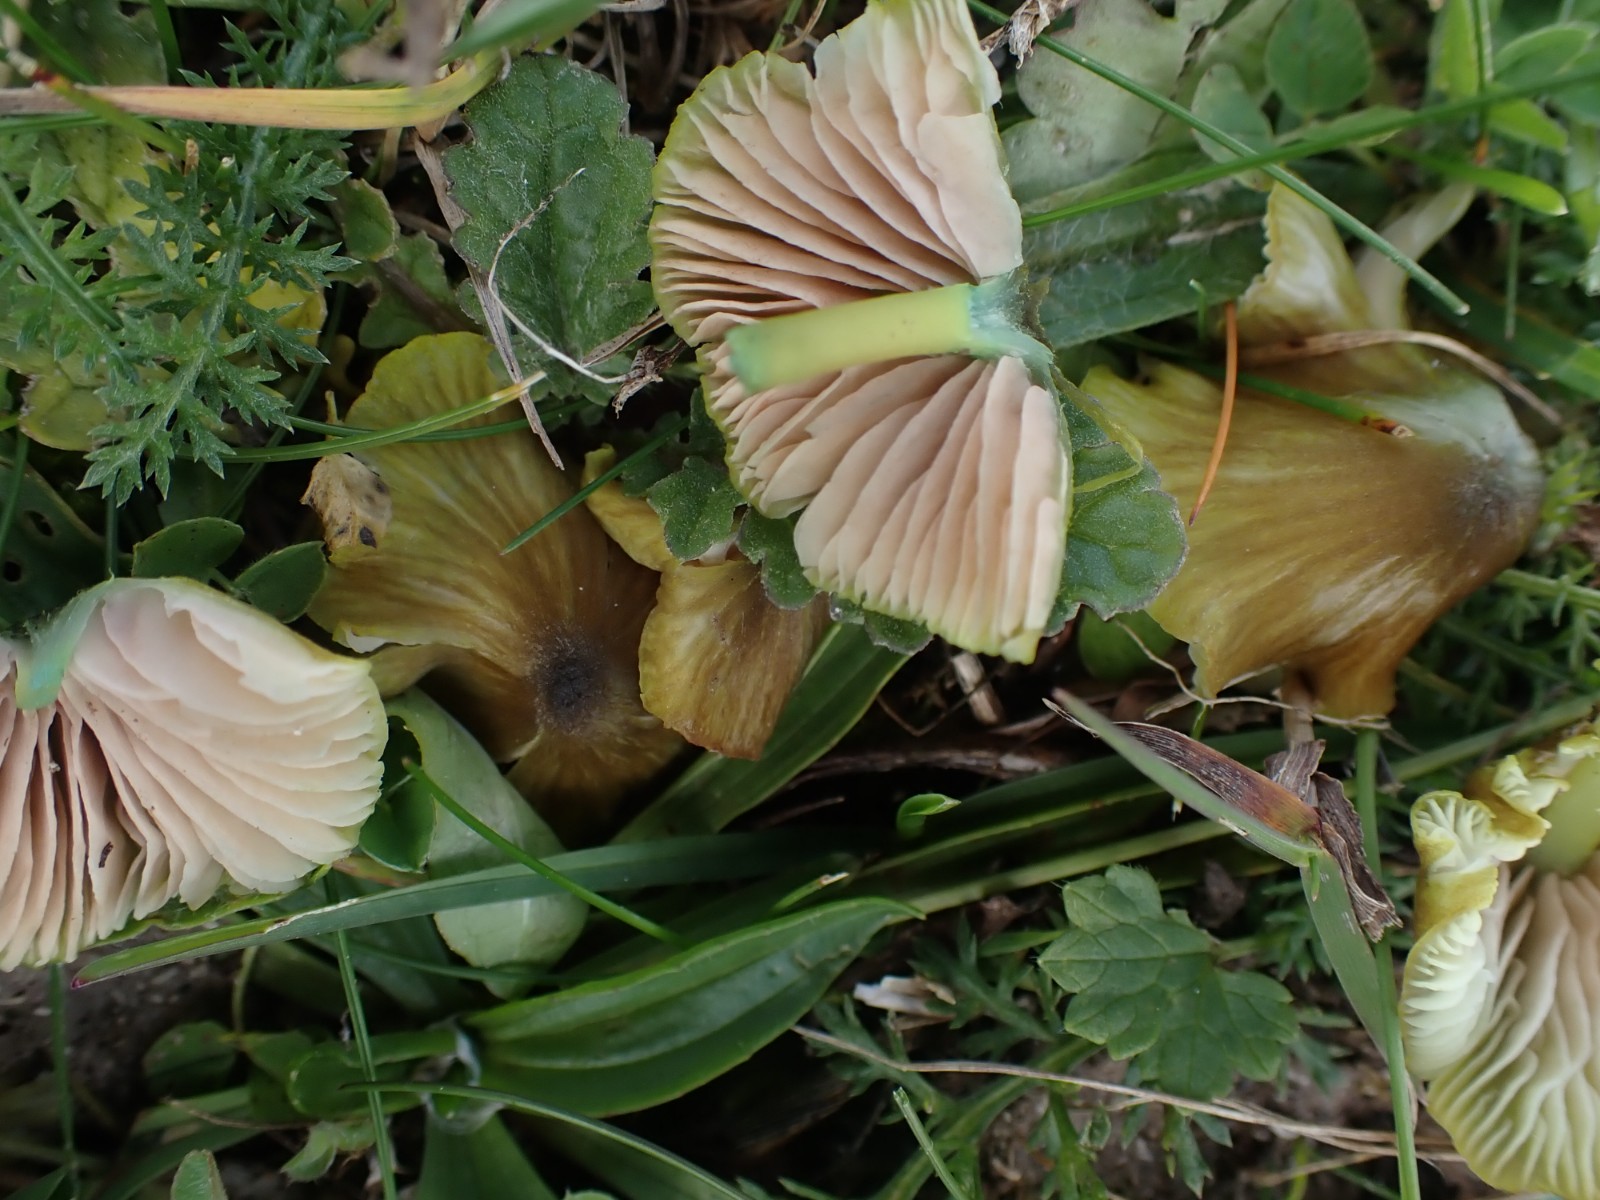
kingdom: Fungi
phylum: Basidiomycota
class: Agaricomycetes
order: Agaricales
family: Entolomataceae
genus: Entoloma
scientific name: Entoloma incanum
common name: grøngul rødblad
